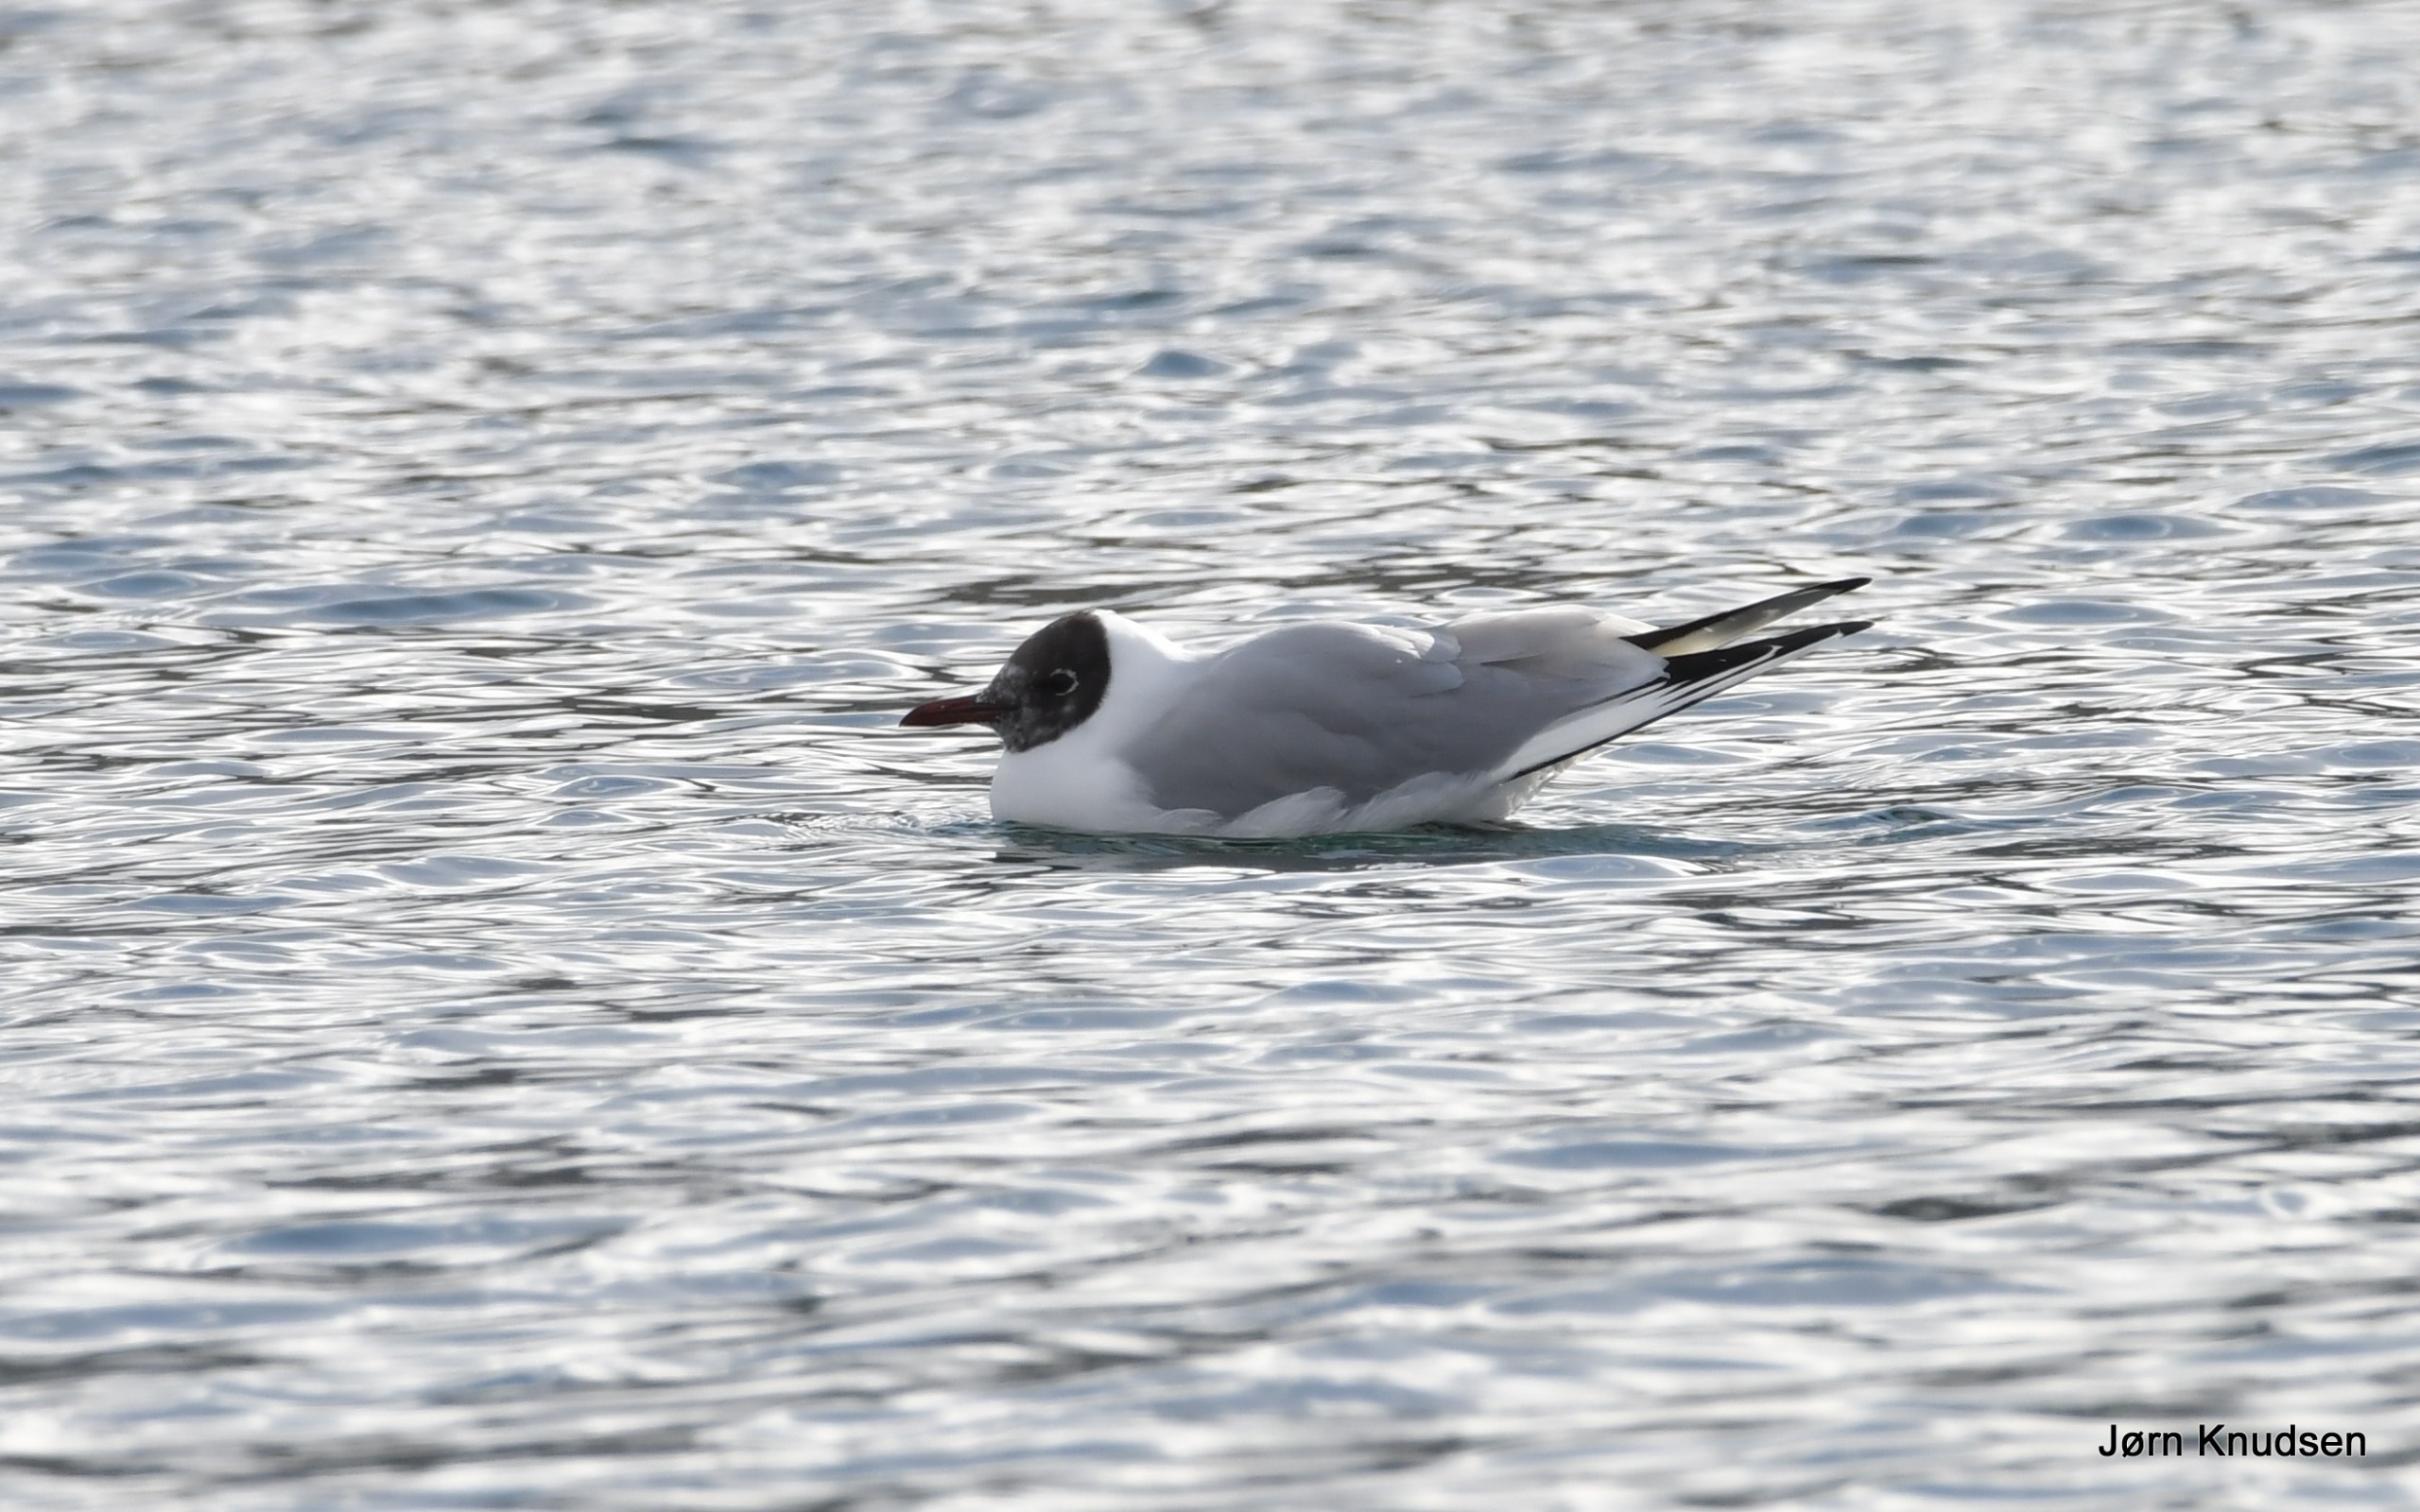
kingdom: Animalia
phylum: Chordata
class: Aves
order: Charadriiformes
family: Laridae
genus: Chroicocephalus
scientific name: Chroicocephalus ridibundus
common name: Hættemåge
